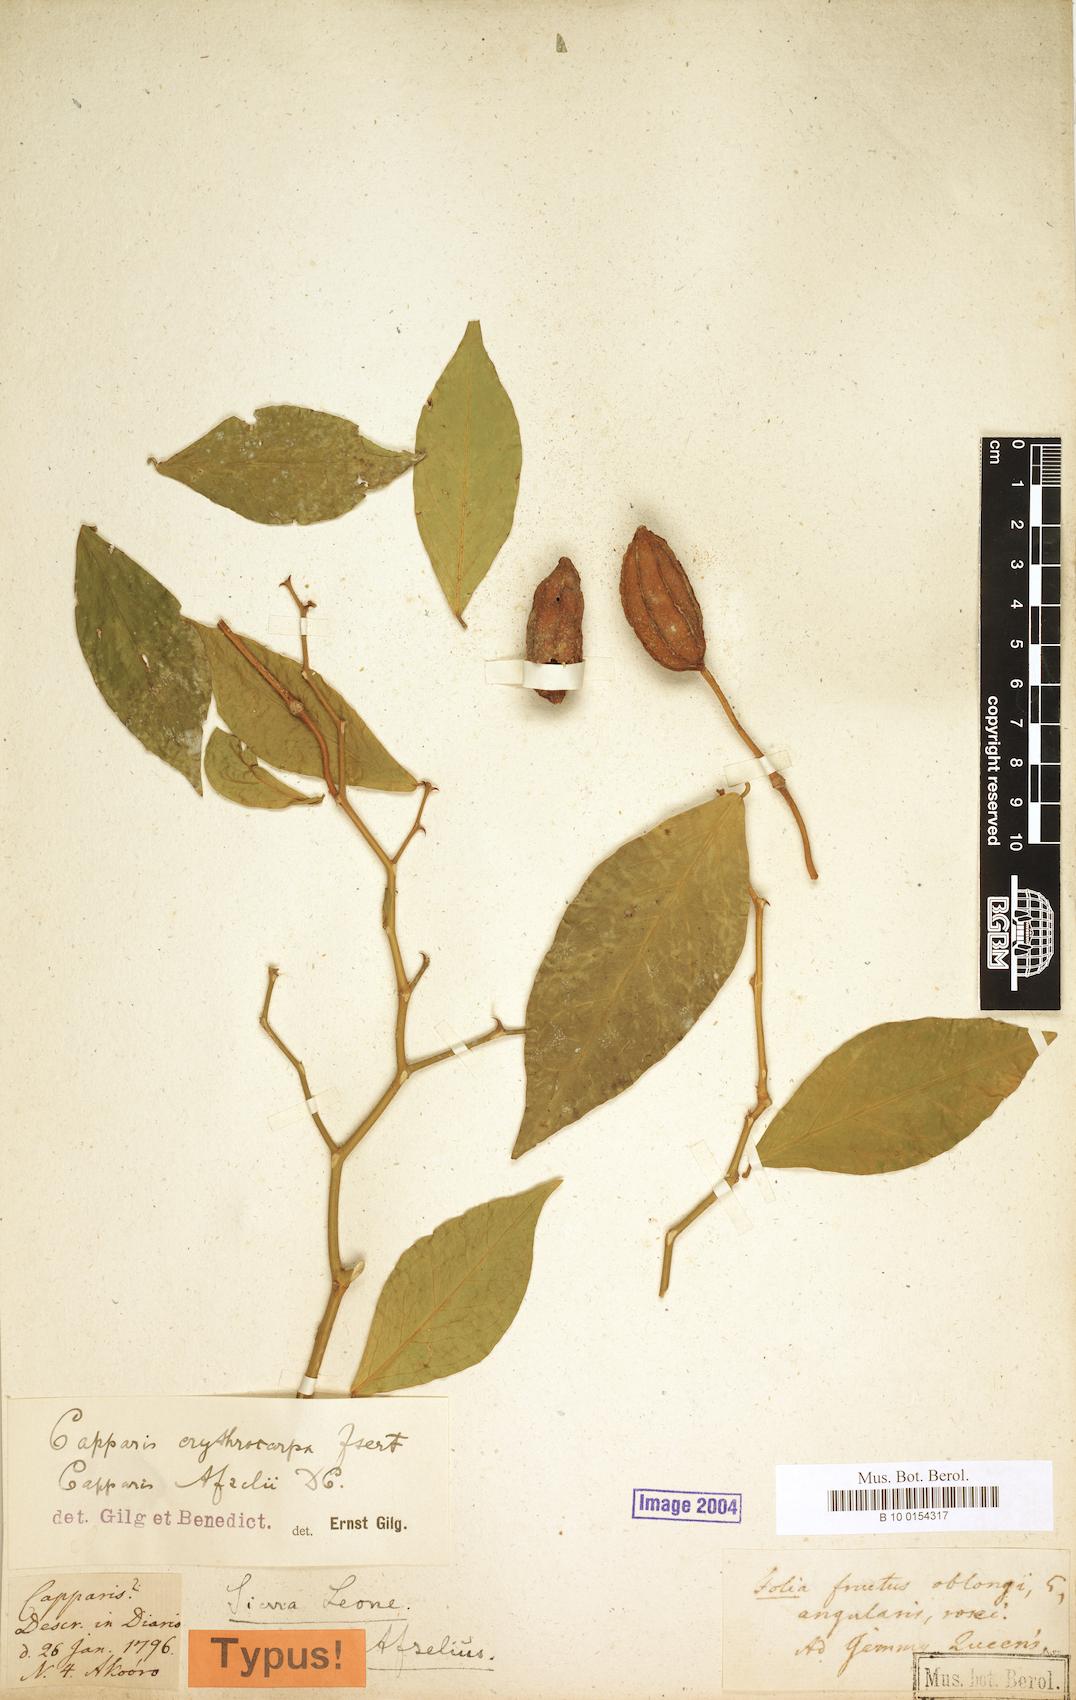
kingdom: Plantae
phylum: Tracheophyta
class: Magnoliopsida
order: Brassicales
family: Capparaceae
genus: Capparis
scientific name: Capparis erythrocarpos
